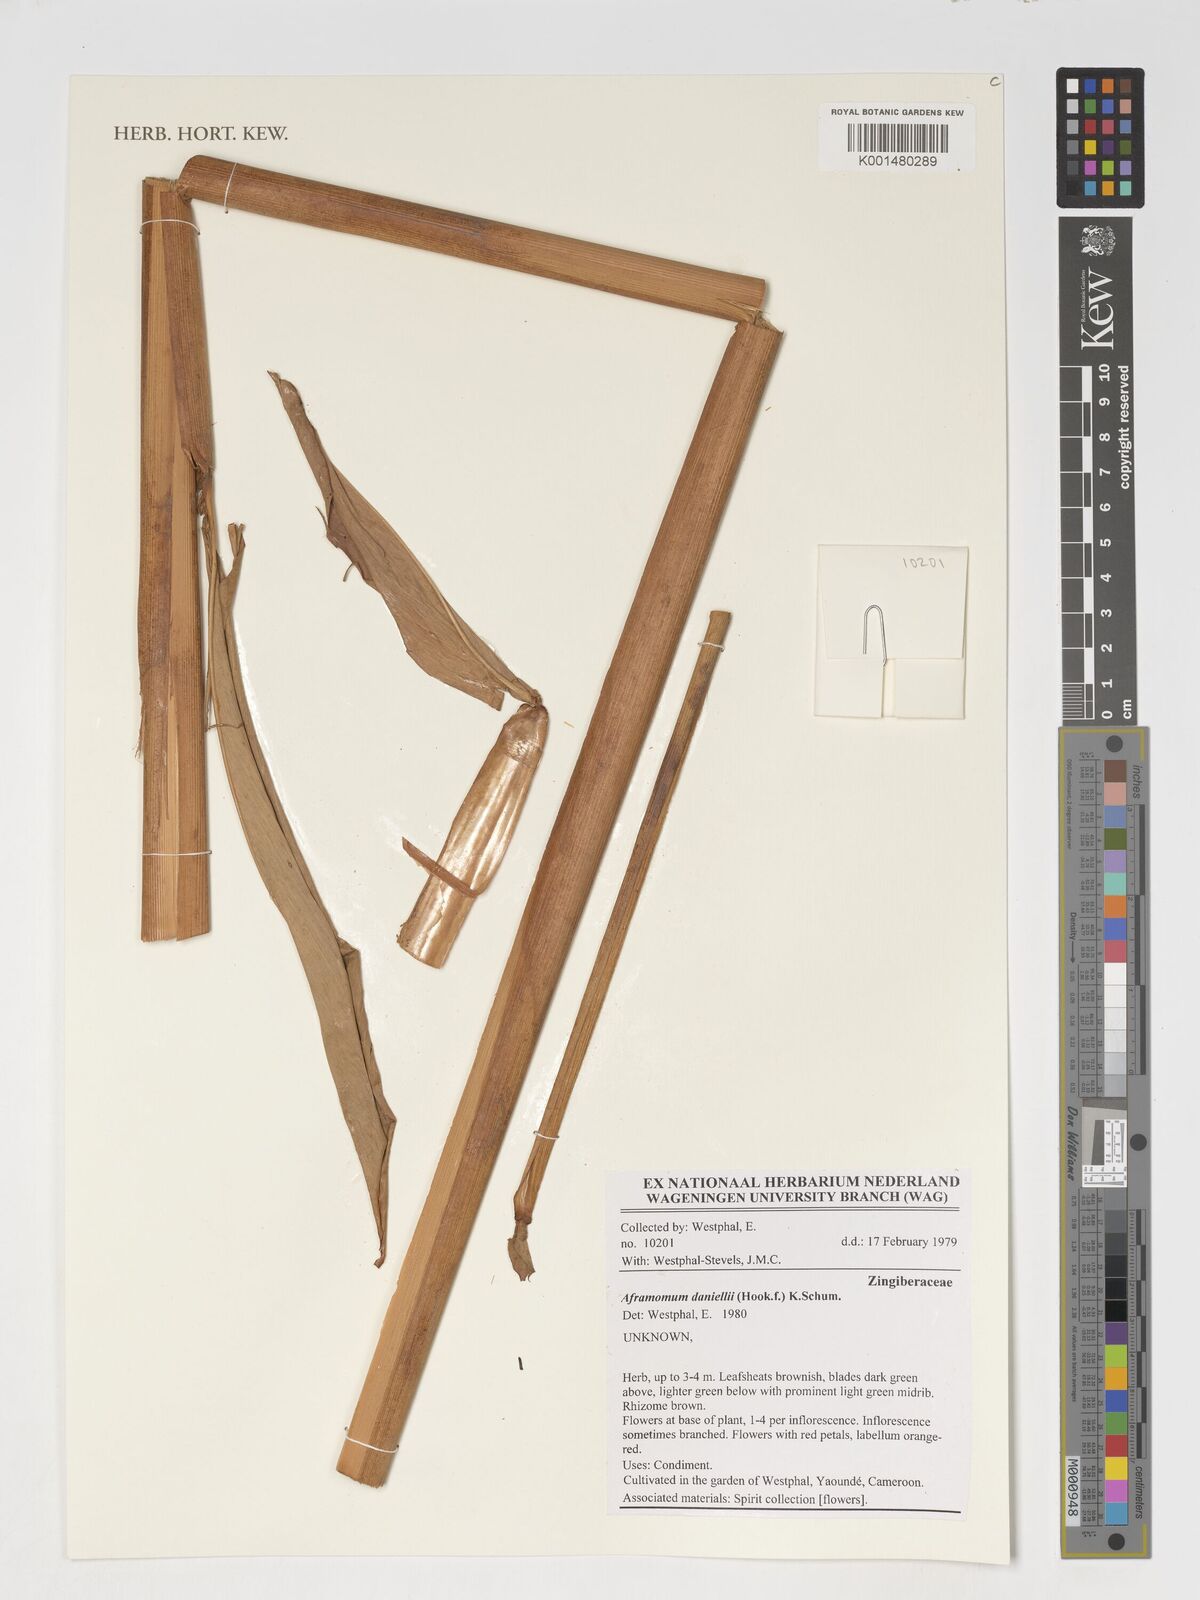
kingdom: Plantae
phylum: Tracheophyta
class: Liliopsida
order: Zingiberales
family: Zingiberaceae
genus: Aframomum
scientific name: Aframomum daniellii
